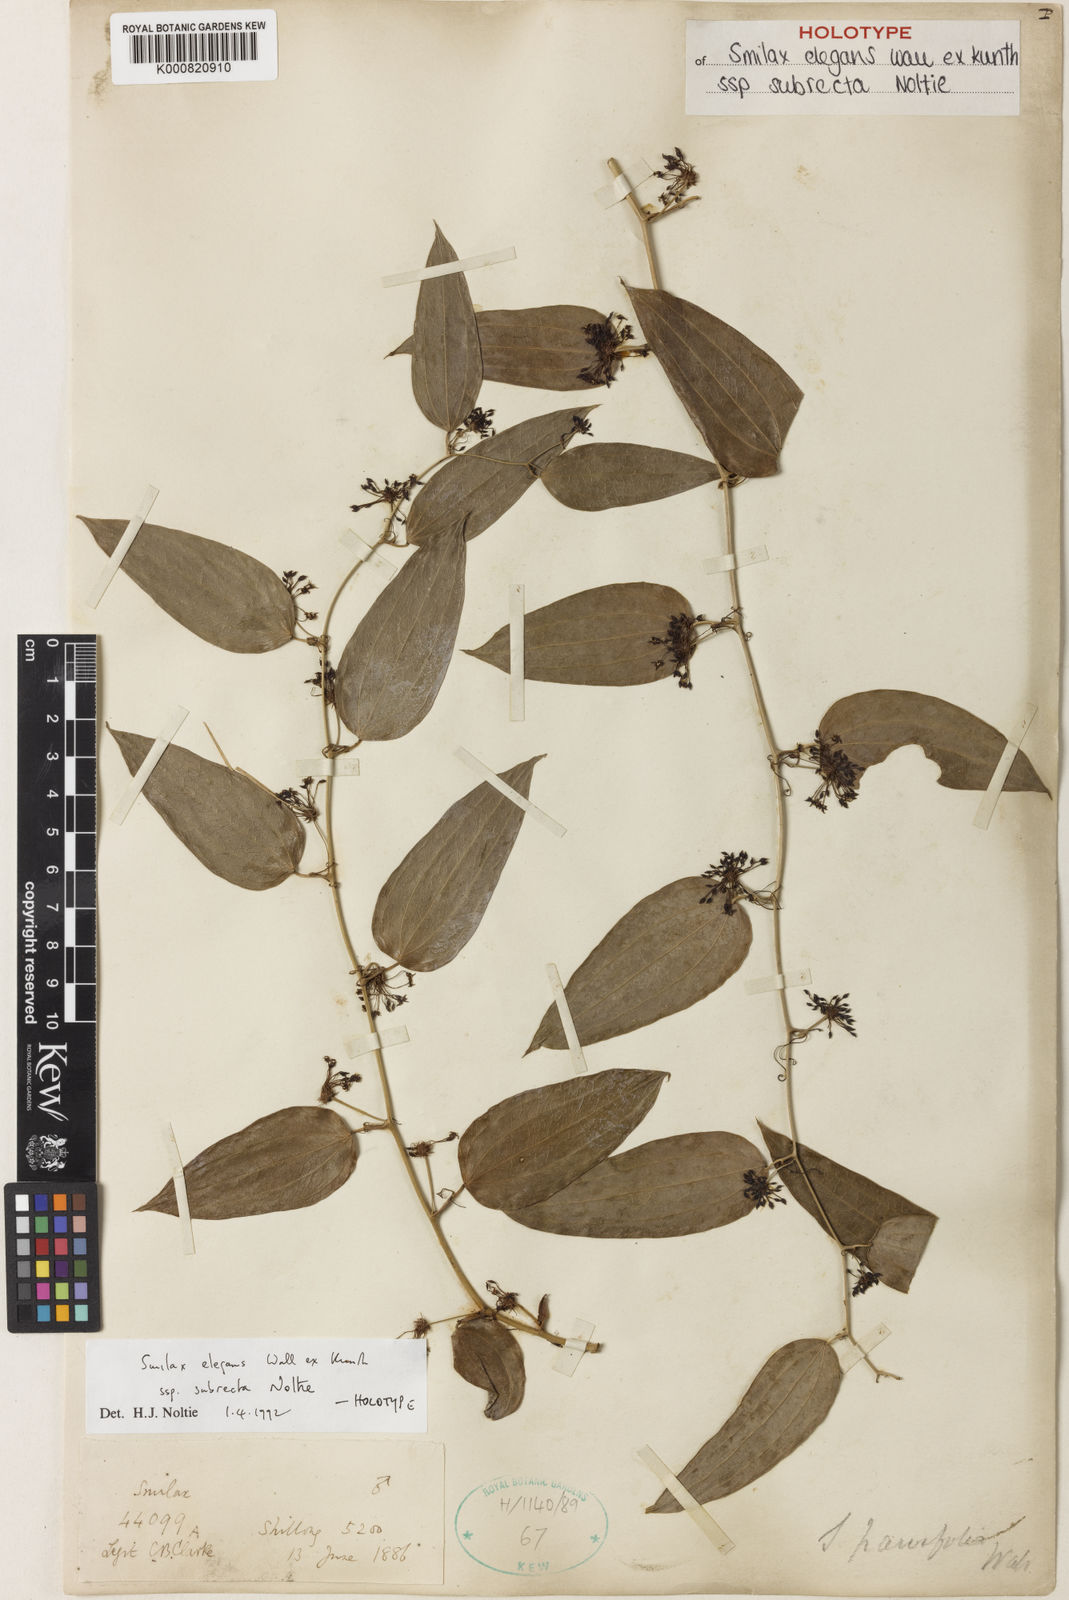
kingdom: Plantae
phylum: Tracheophyta
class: Liliopsida
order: Liliales
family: Smilacaceae
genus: Smilax
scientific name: Smilax elegans
